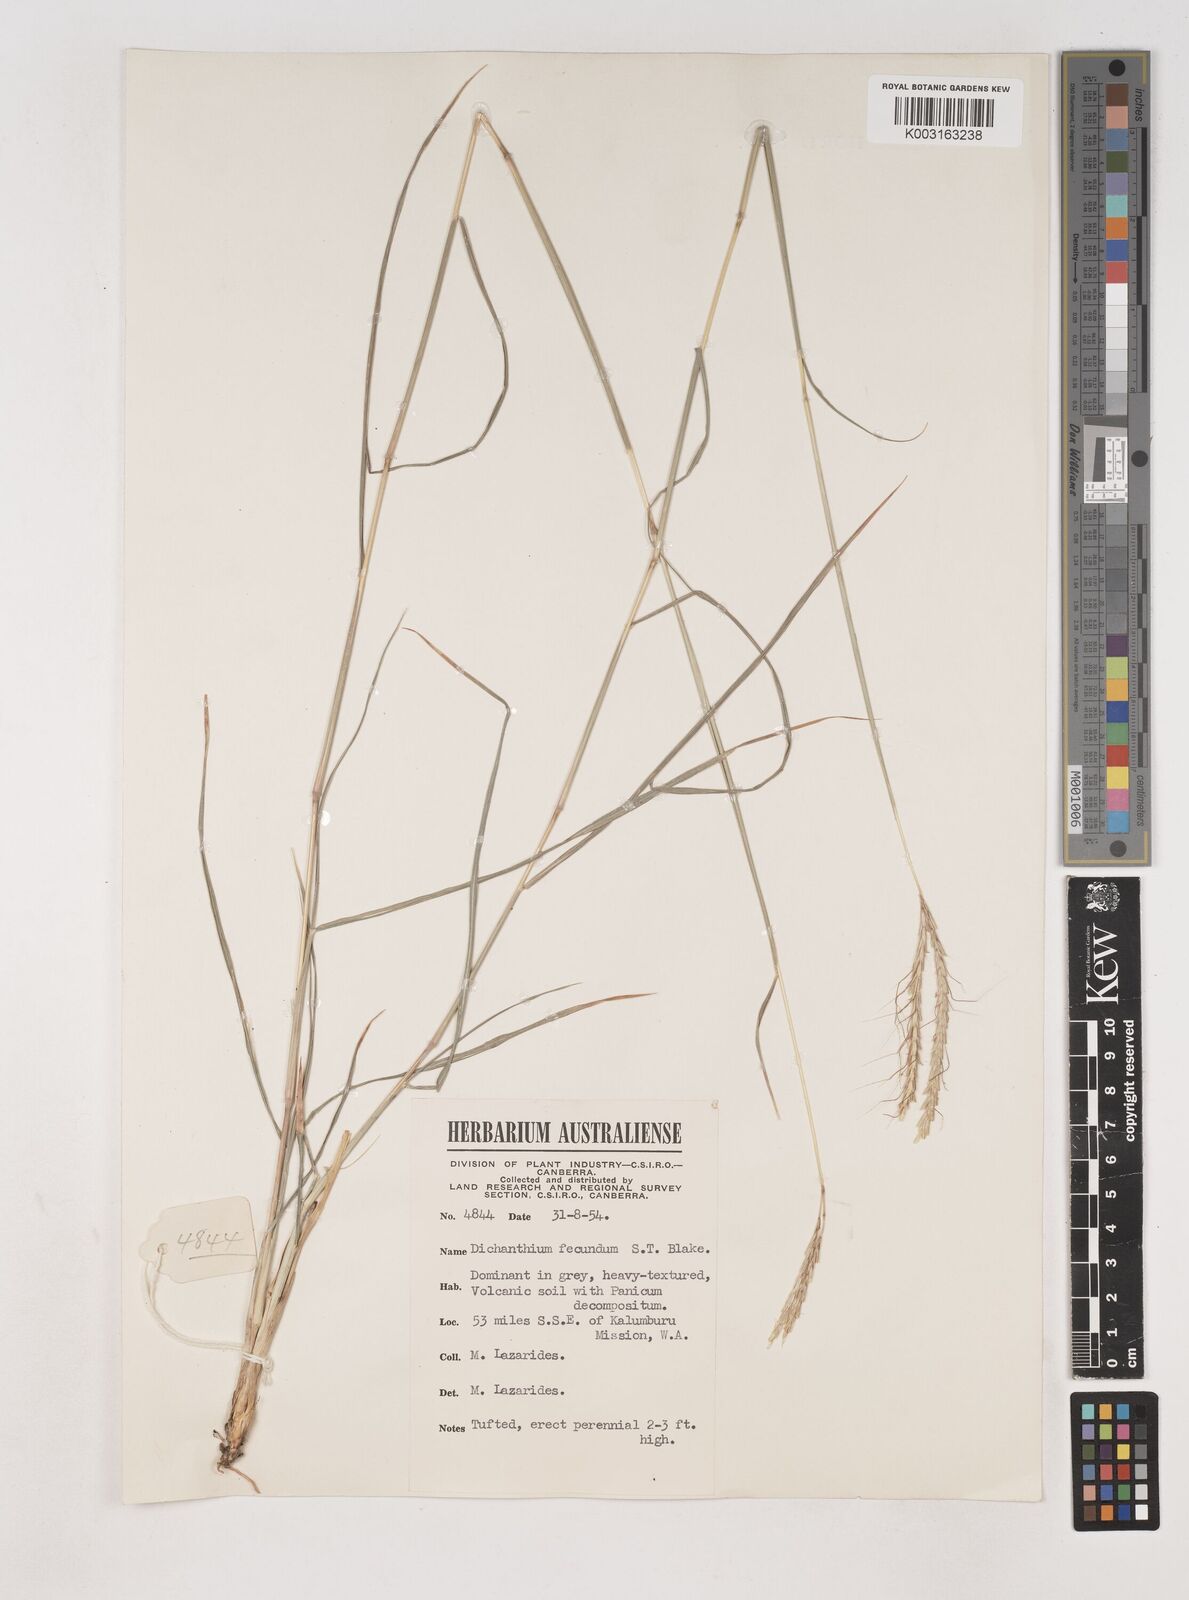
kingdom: Plantae
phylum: Tracheophyta
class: Liliopsida
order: Poales
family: Poaceae
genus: Dichanthium
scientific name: Dichanthium fecundum
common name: Bundle-bundle
